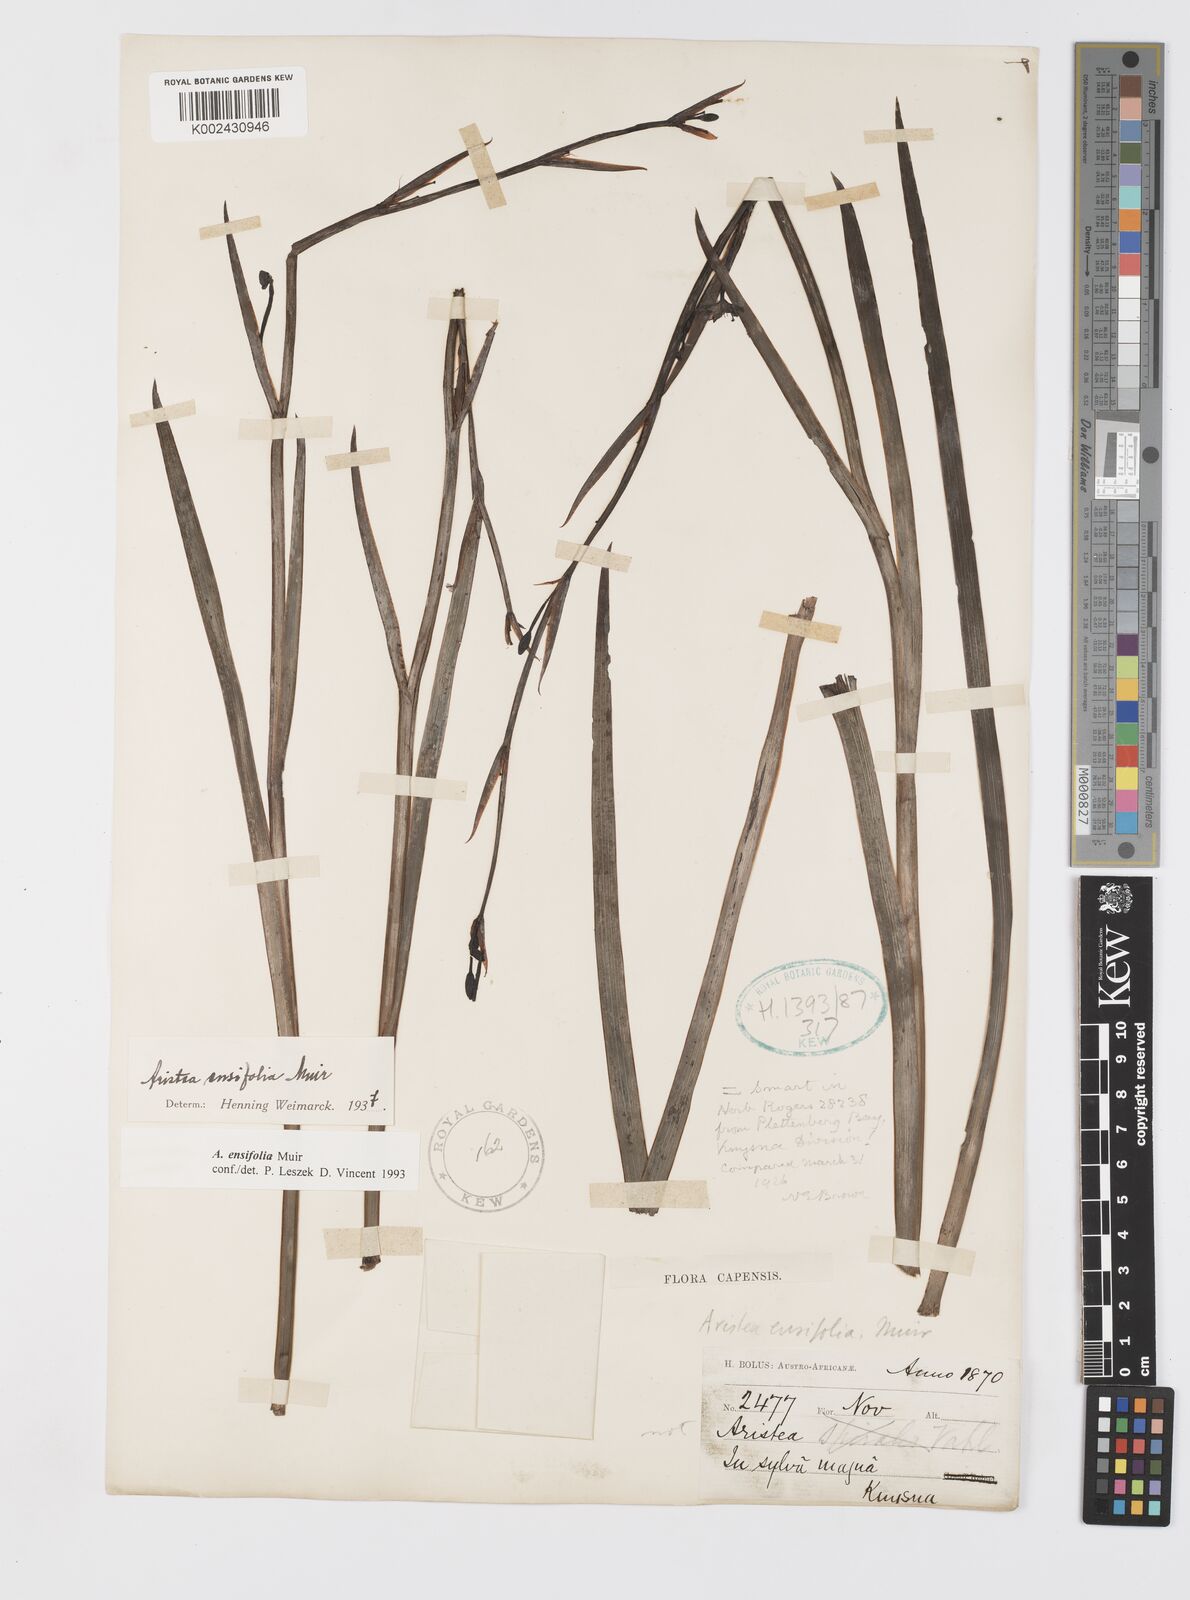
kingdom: Plantae
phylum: Tracheophyta
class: Liliopsida
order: Asparagales
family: Iridaceae
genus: Aristea
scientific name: Aristea ensifolia
